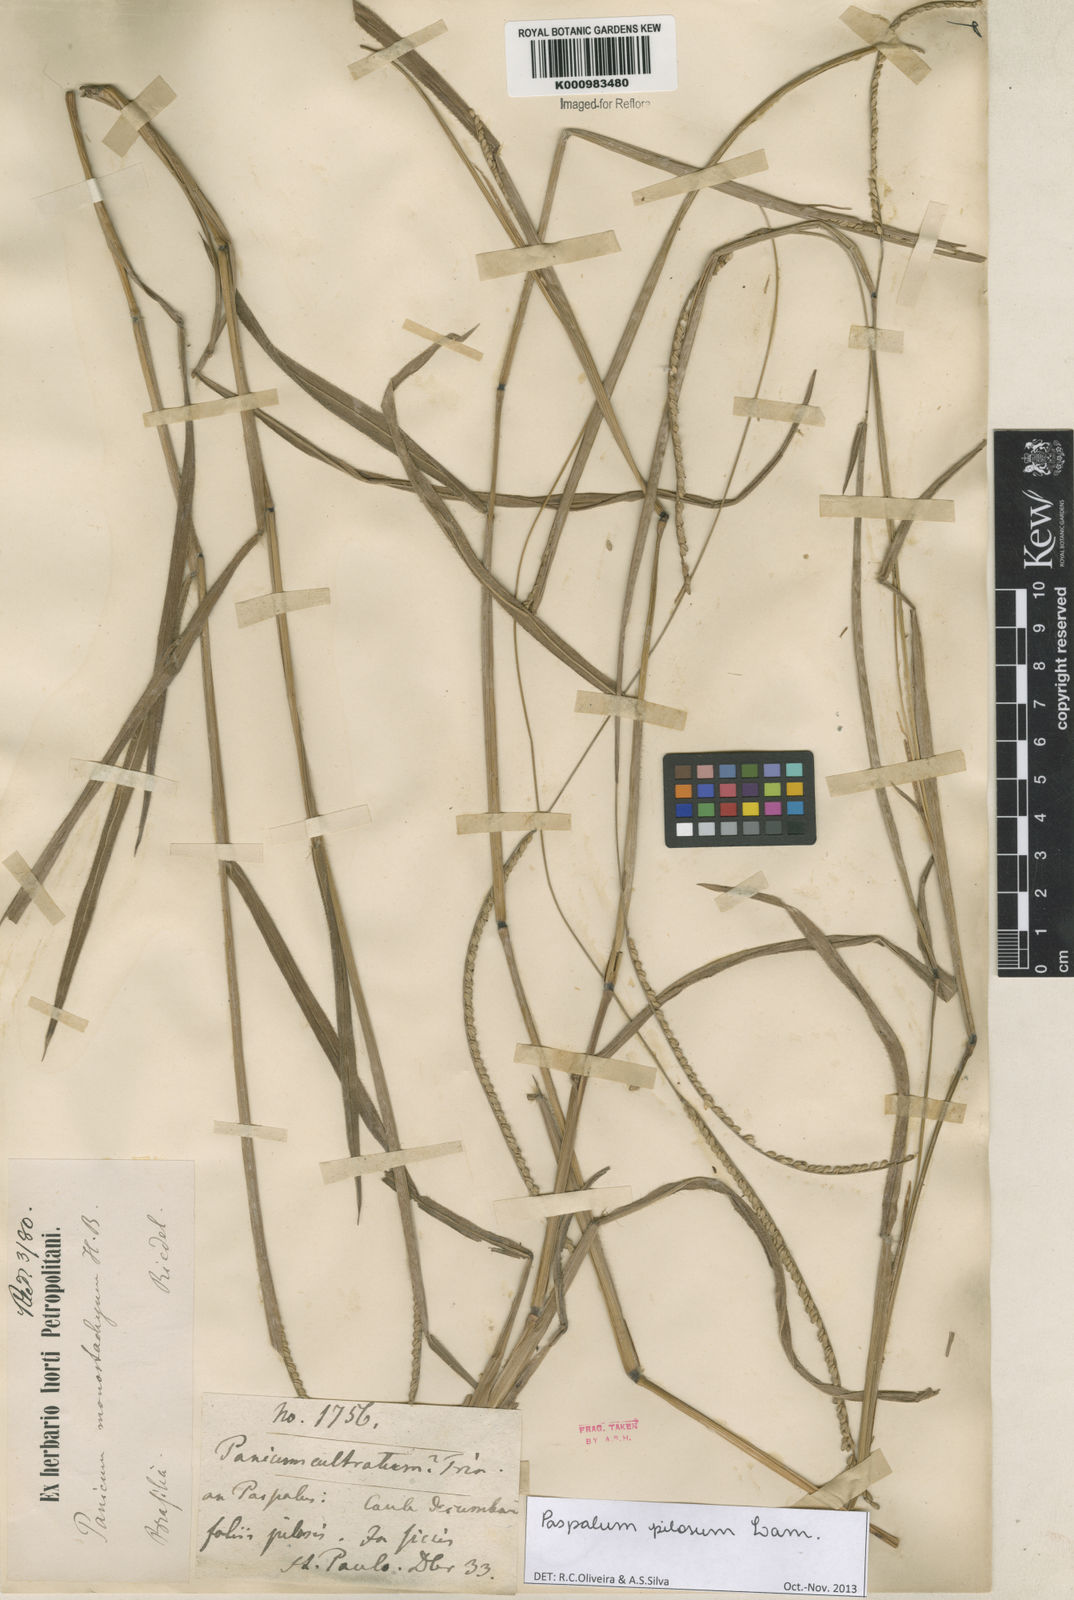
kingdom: Plantae
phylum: Tracheophyta
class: Liliopsida
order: Poales
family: Poaceae
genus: Paspalum
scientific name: Paspalum pilosum
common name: Crowngrass
